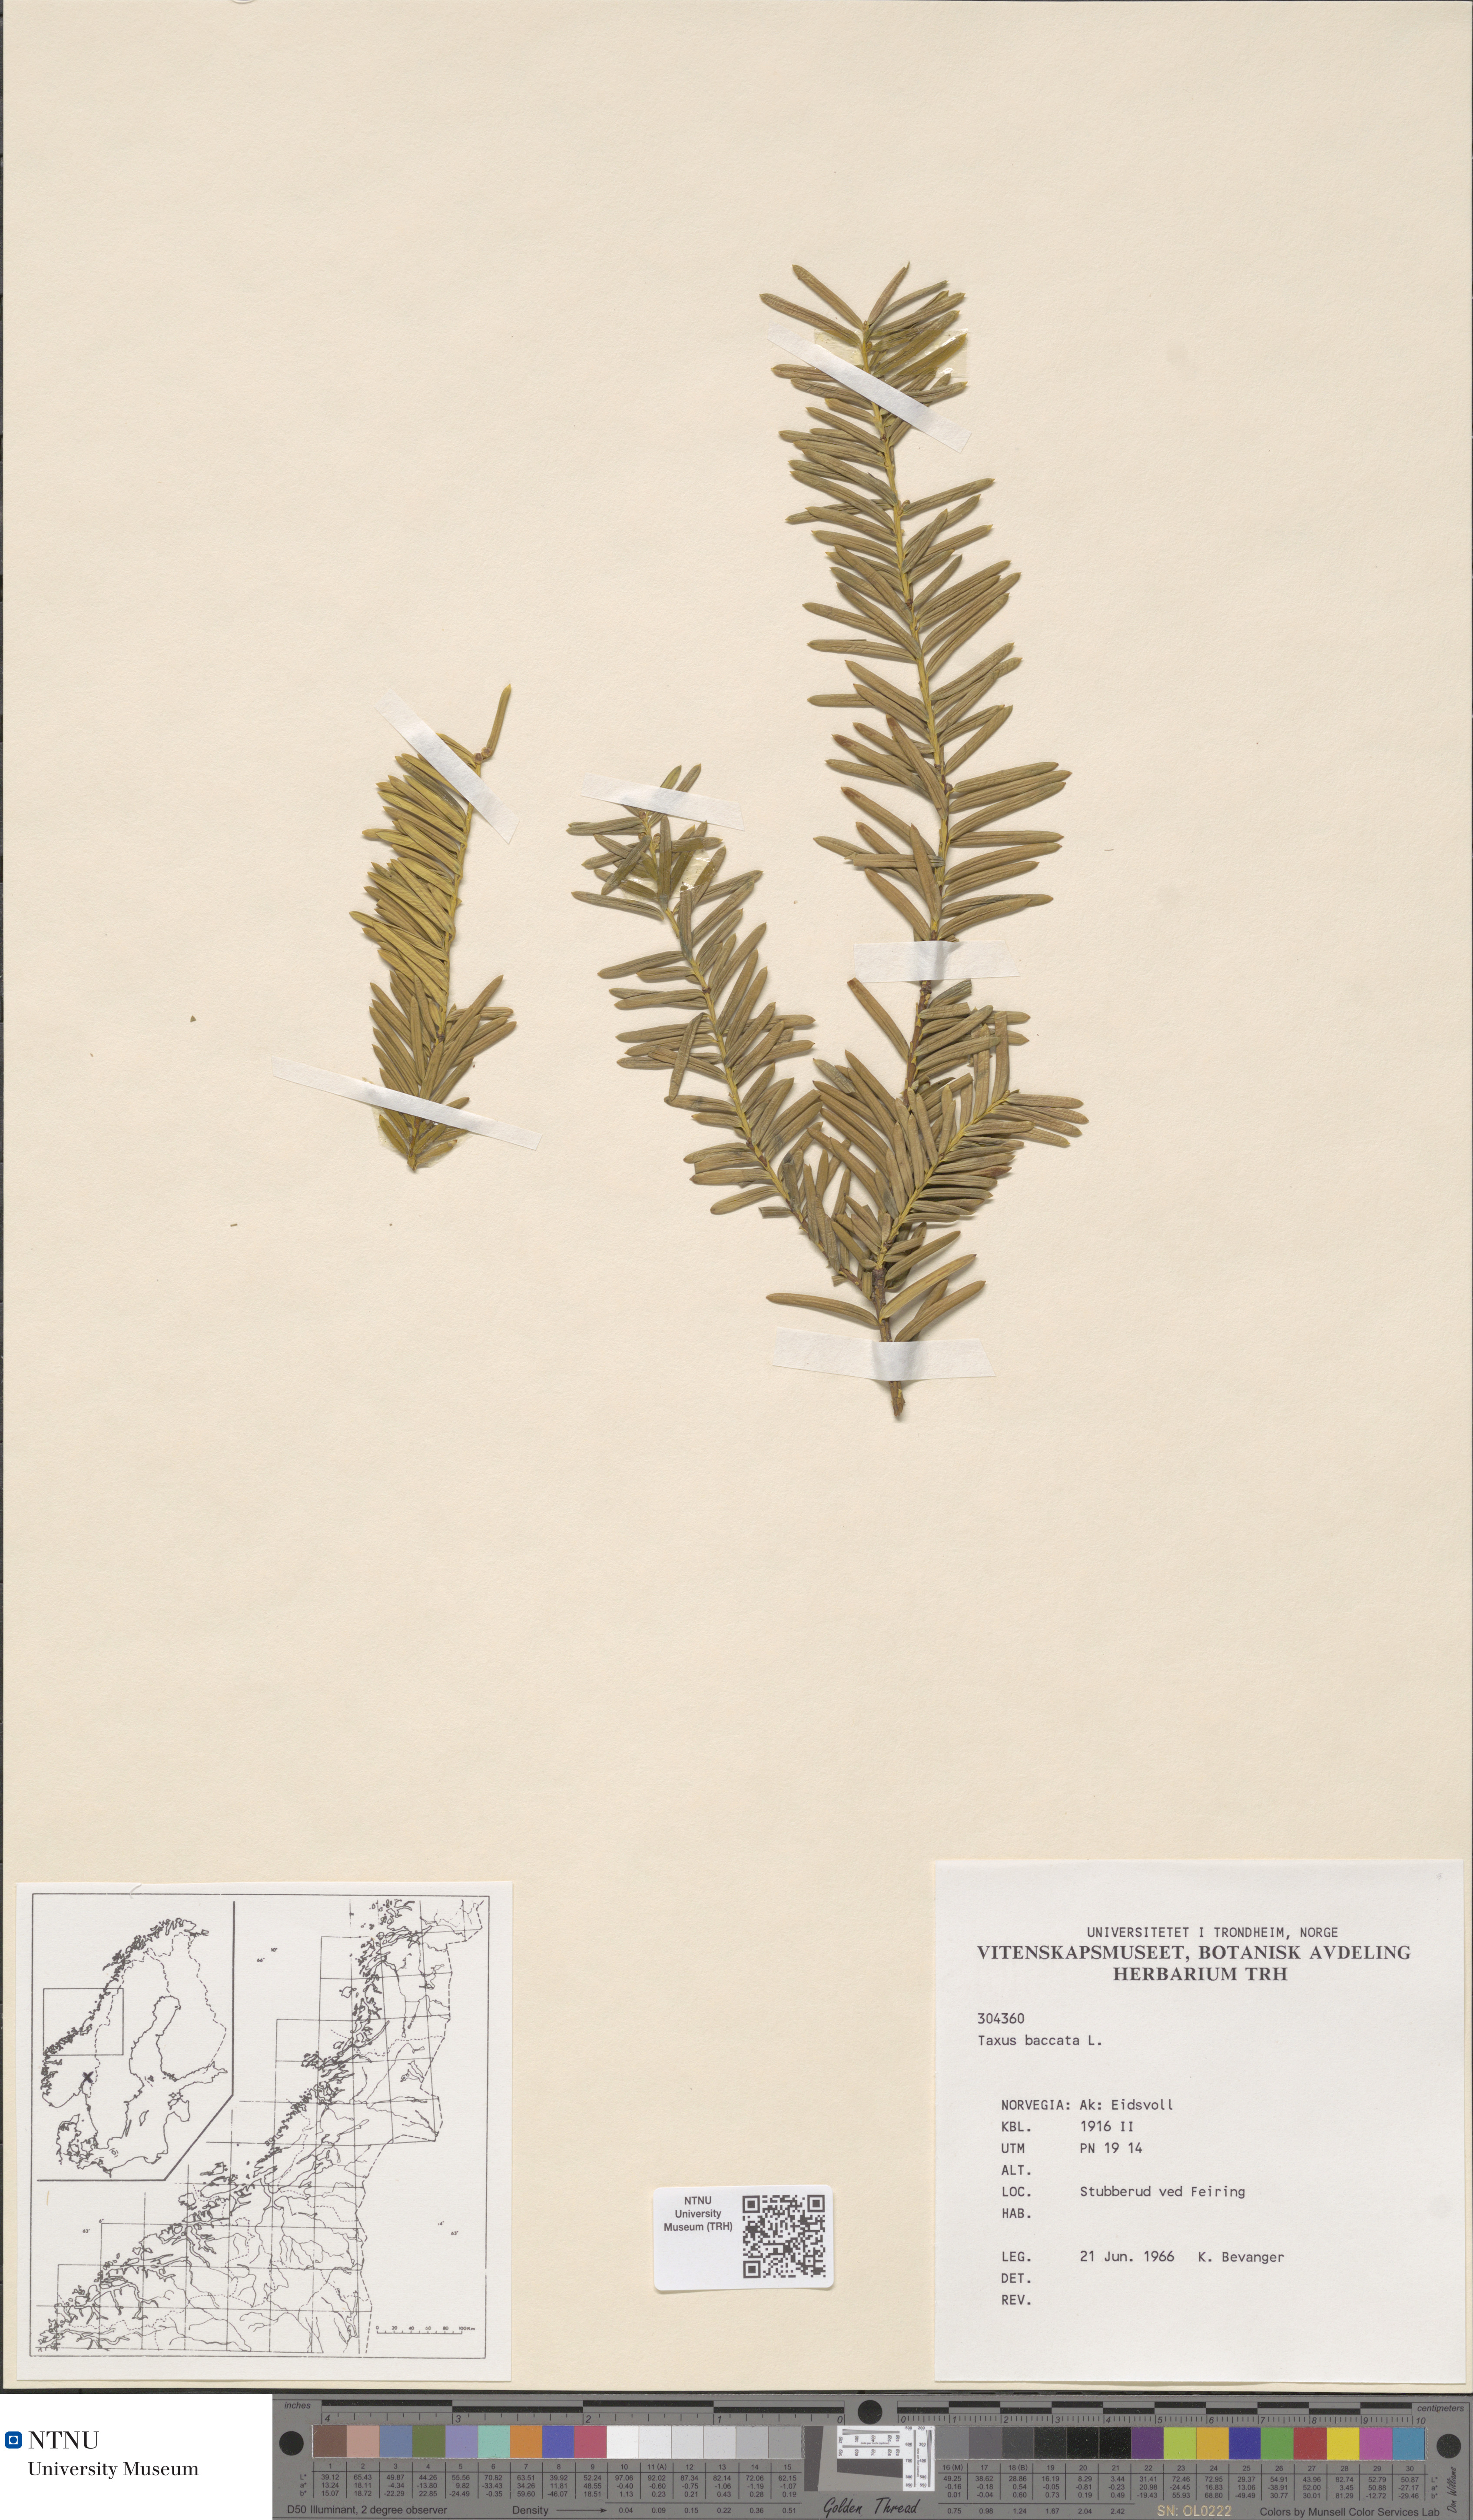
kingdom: Plantae
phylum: Tracheophyta
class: Pinopsida
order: Pinales
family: Taxaceae
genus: Taxus
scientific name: Taxus baccata
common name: Yew
